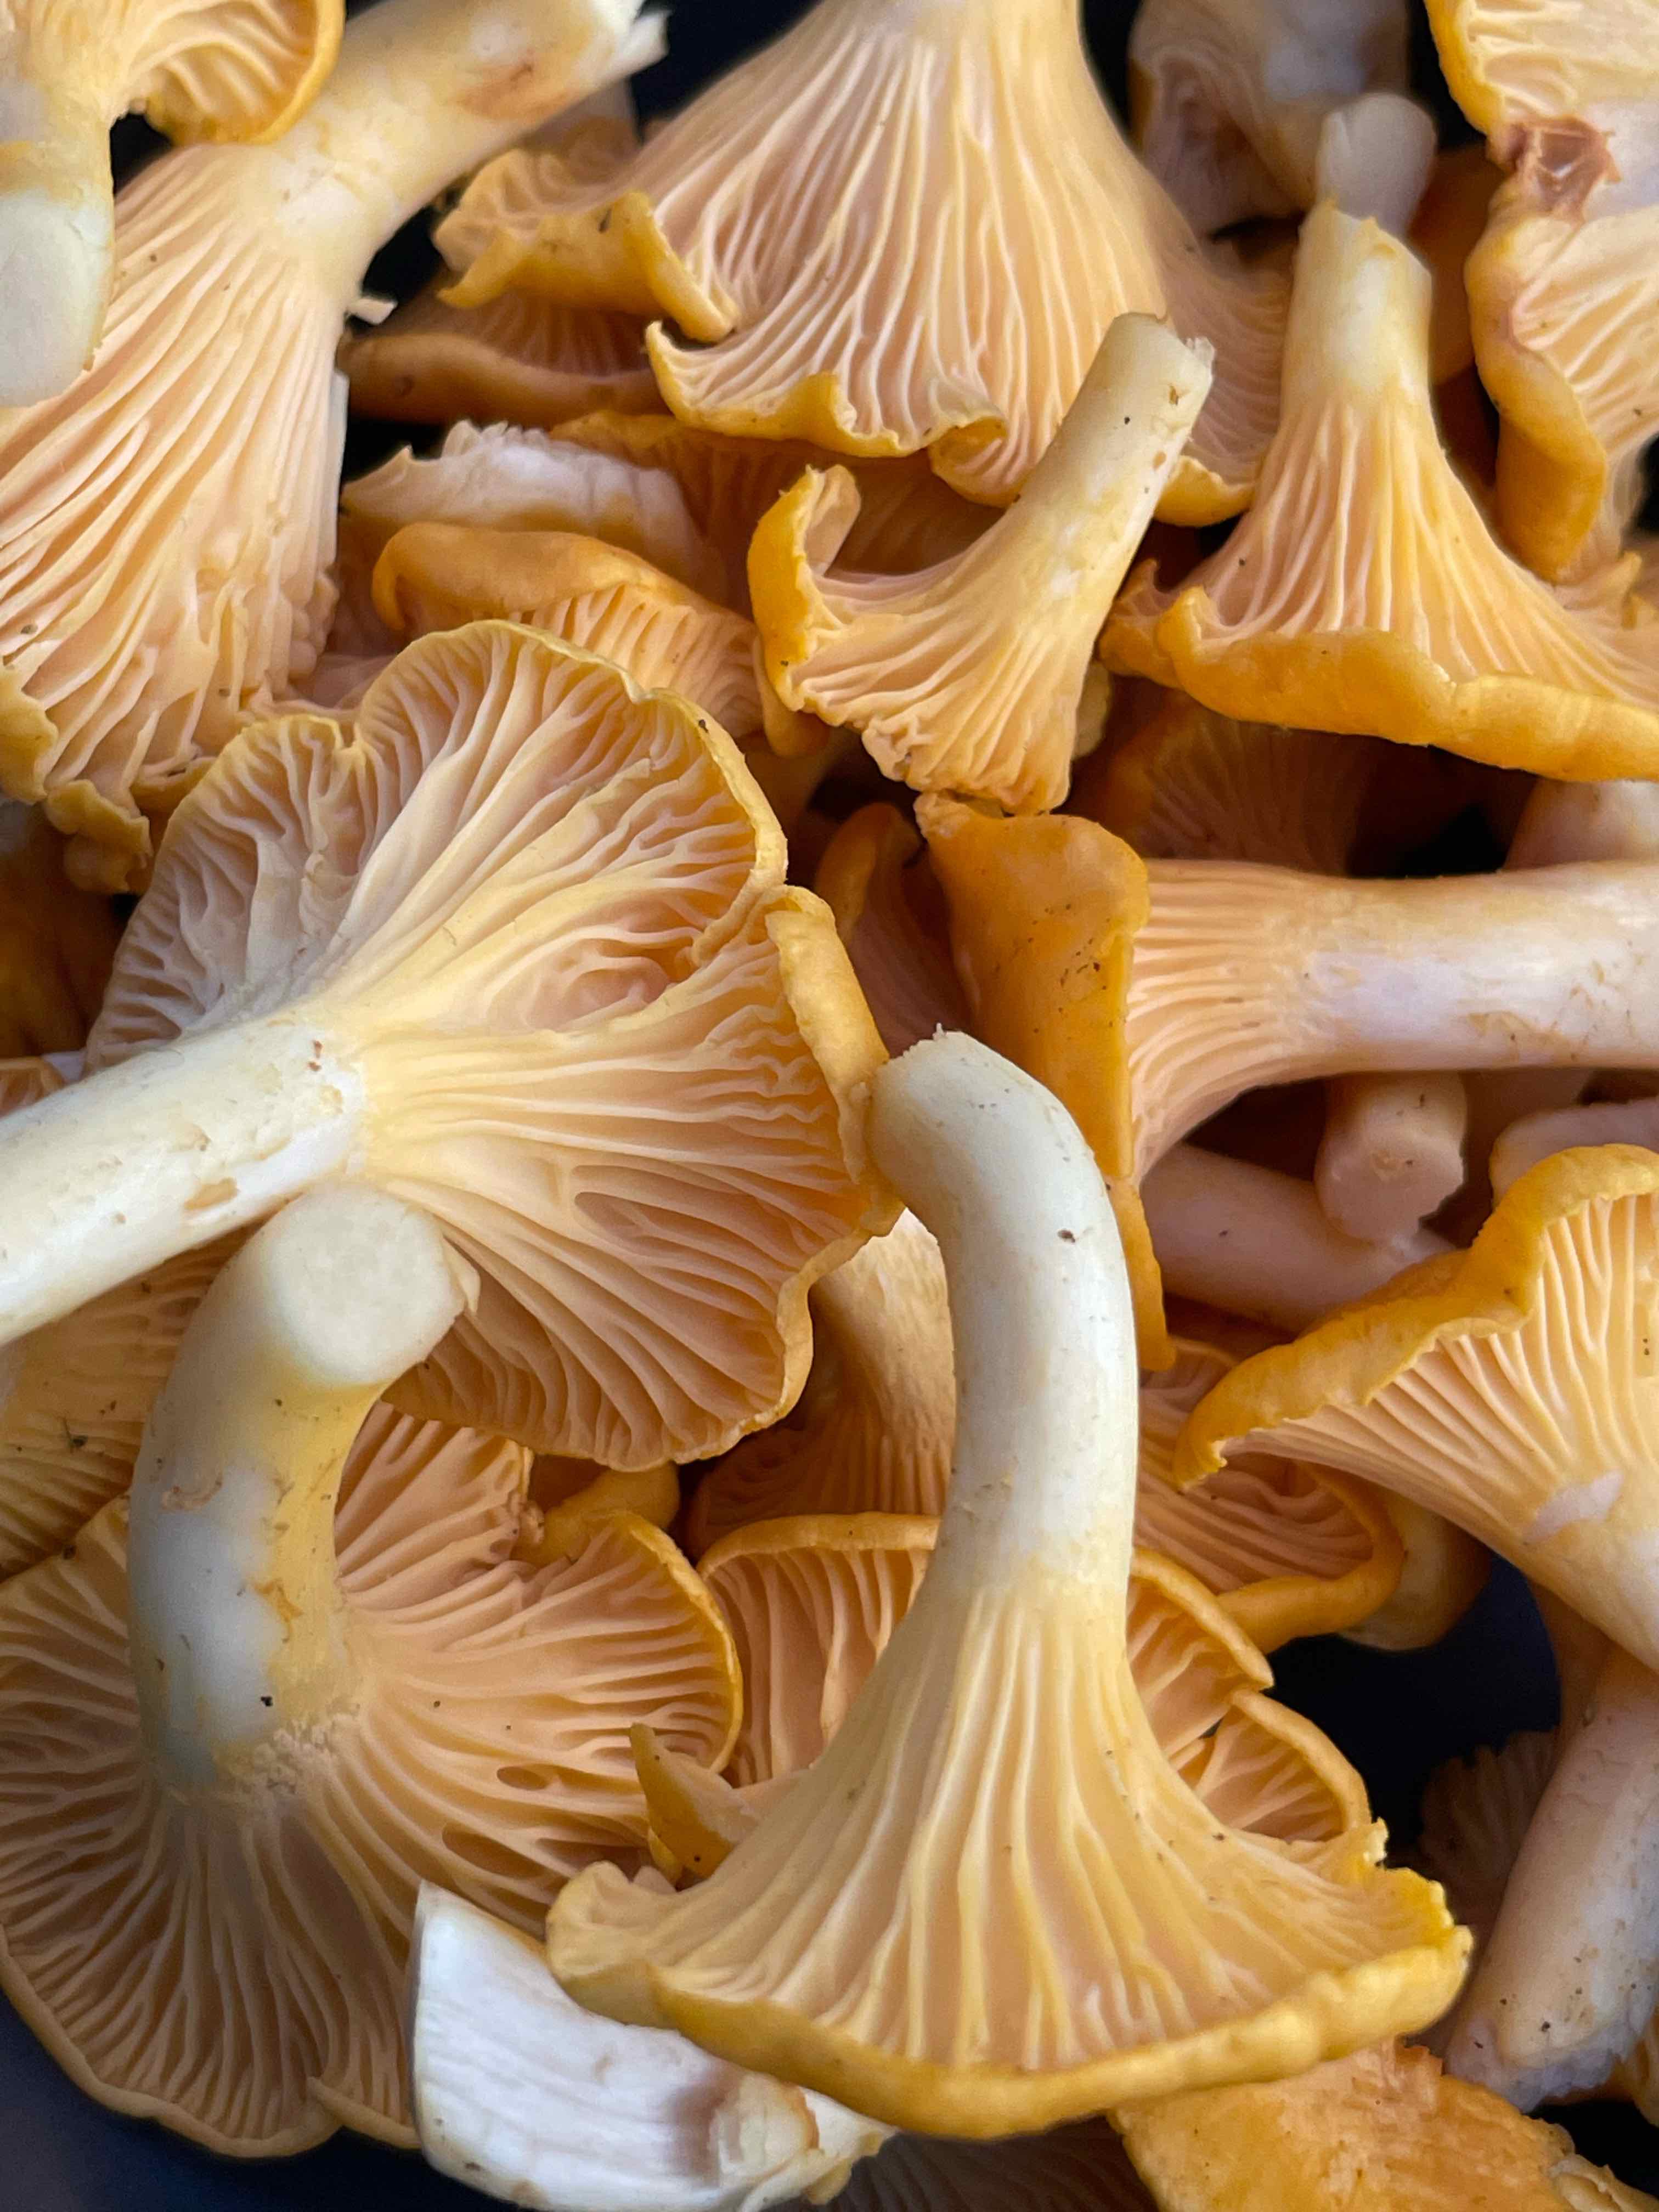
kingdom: Fungi
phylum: Basidiomycota
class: Agaricomycetes
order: Cantharellales
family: Hydnaceae
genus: Cantharellus
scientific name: Cantharellus cibarius
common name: almindelig kantarel
